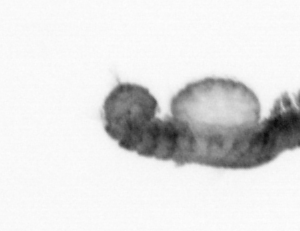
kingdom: Animalia
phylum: Annelida
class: Polychaeta
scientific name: Polychaeta
